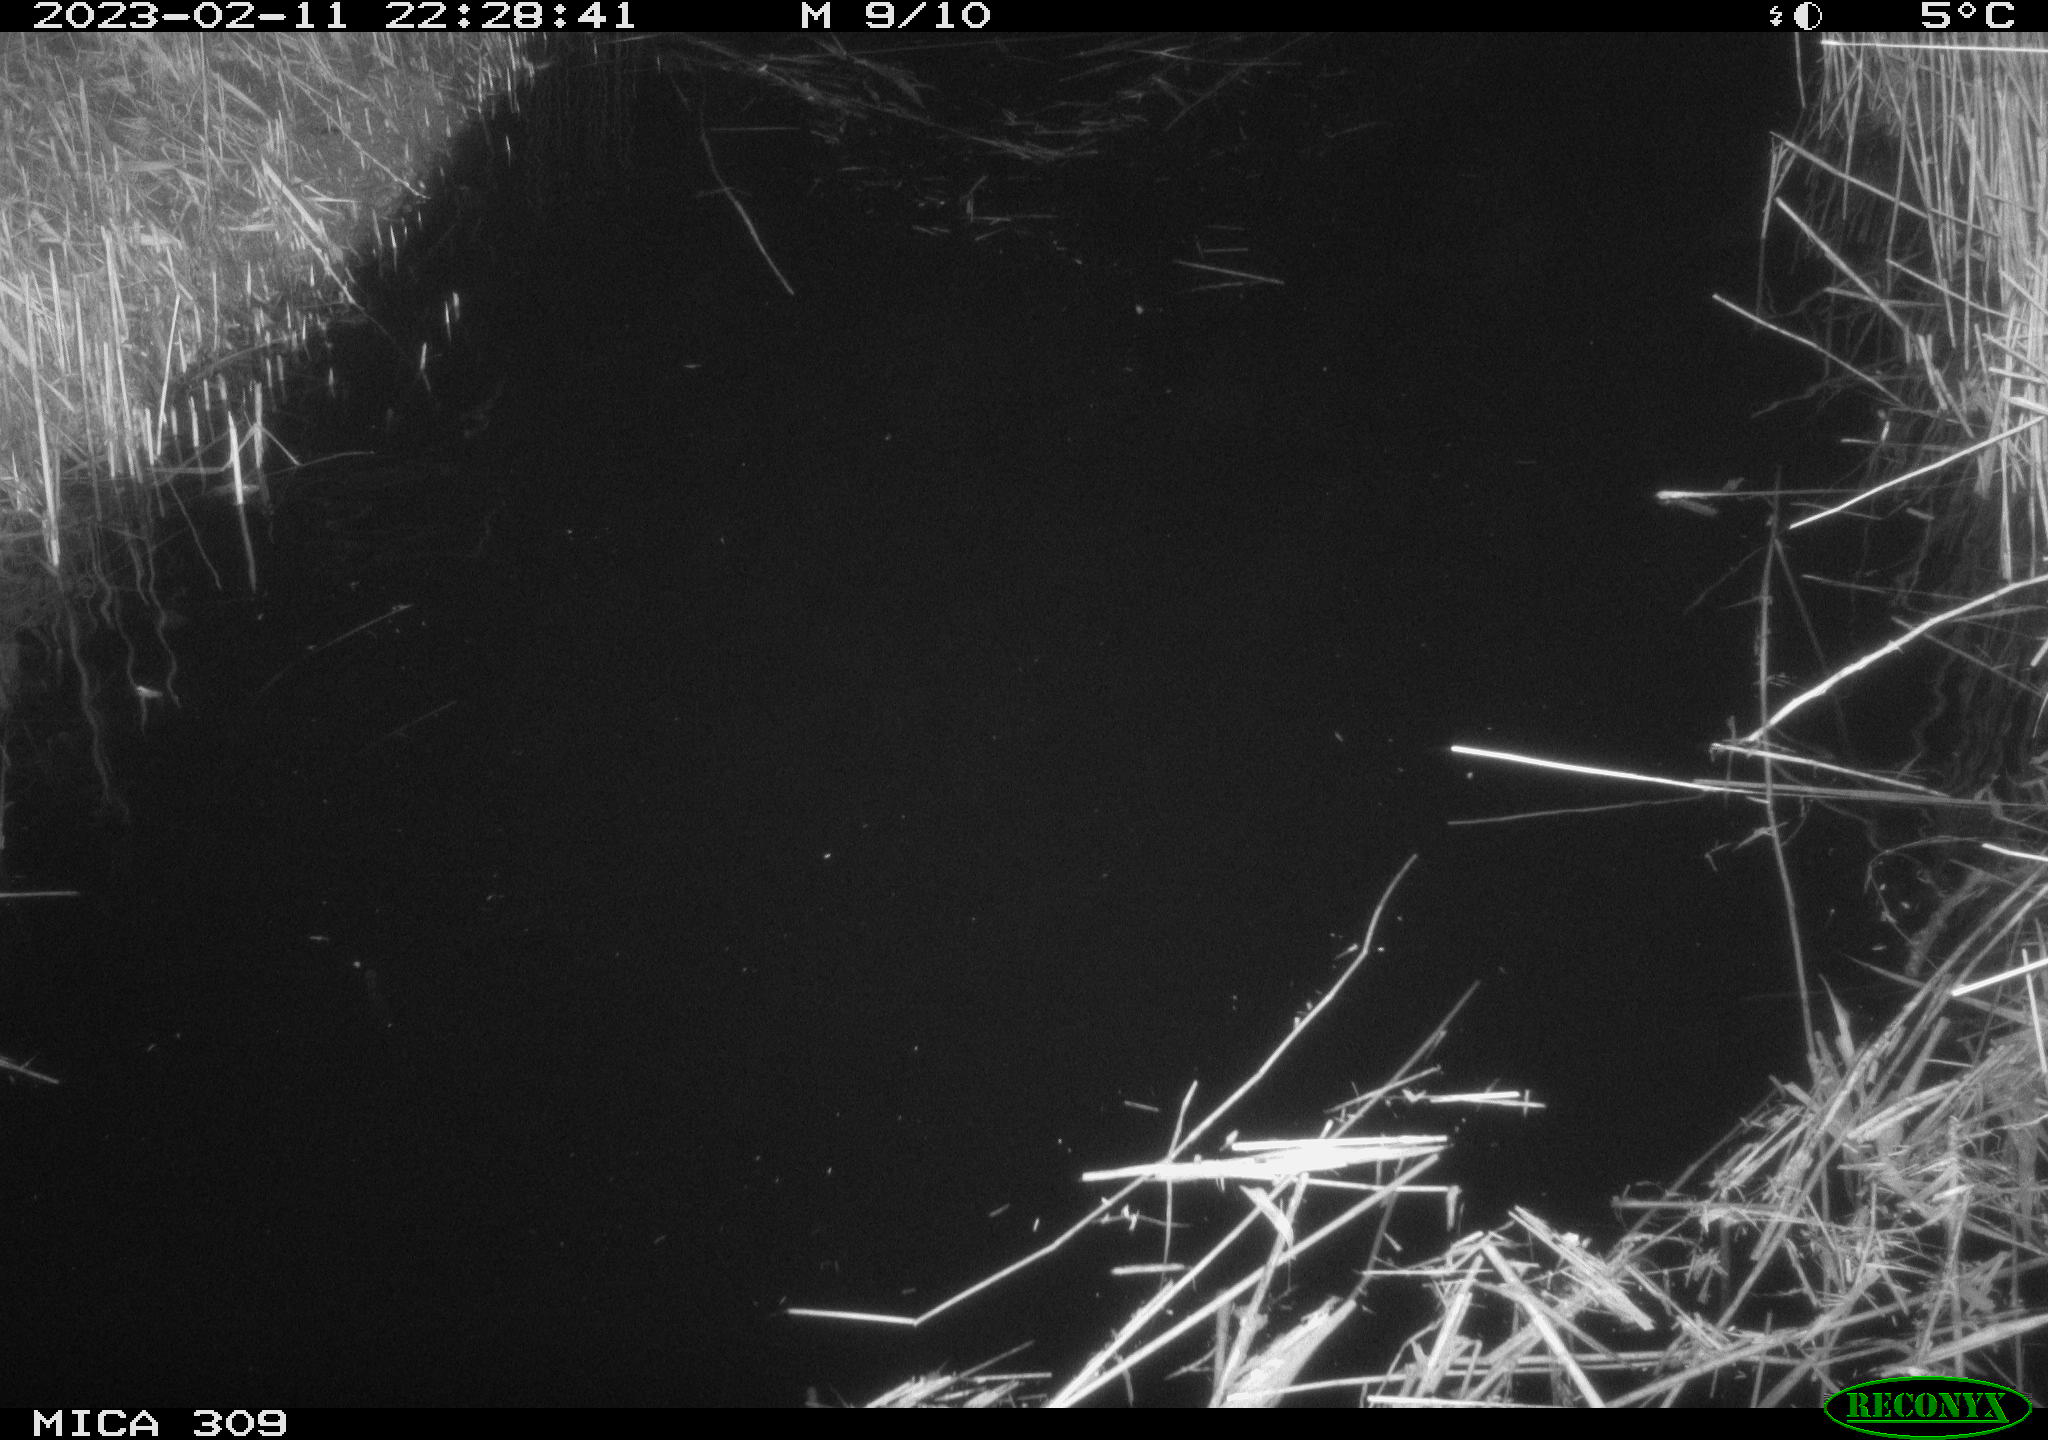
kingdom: Animalia
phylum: Chordata
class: Mammalia
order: Rodentia
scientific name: Rodentia
